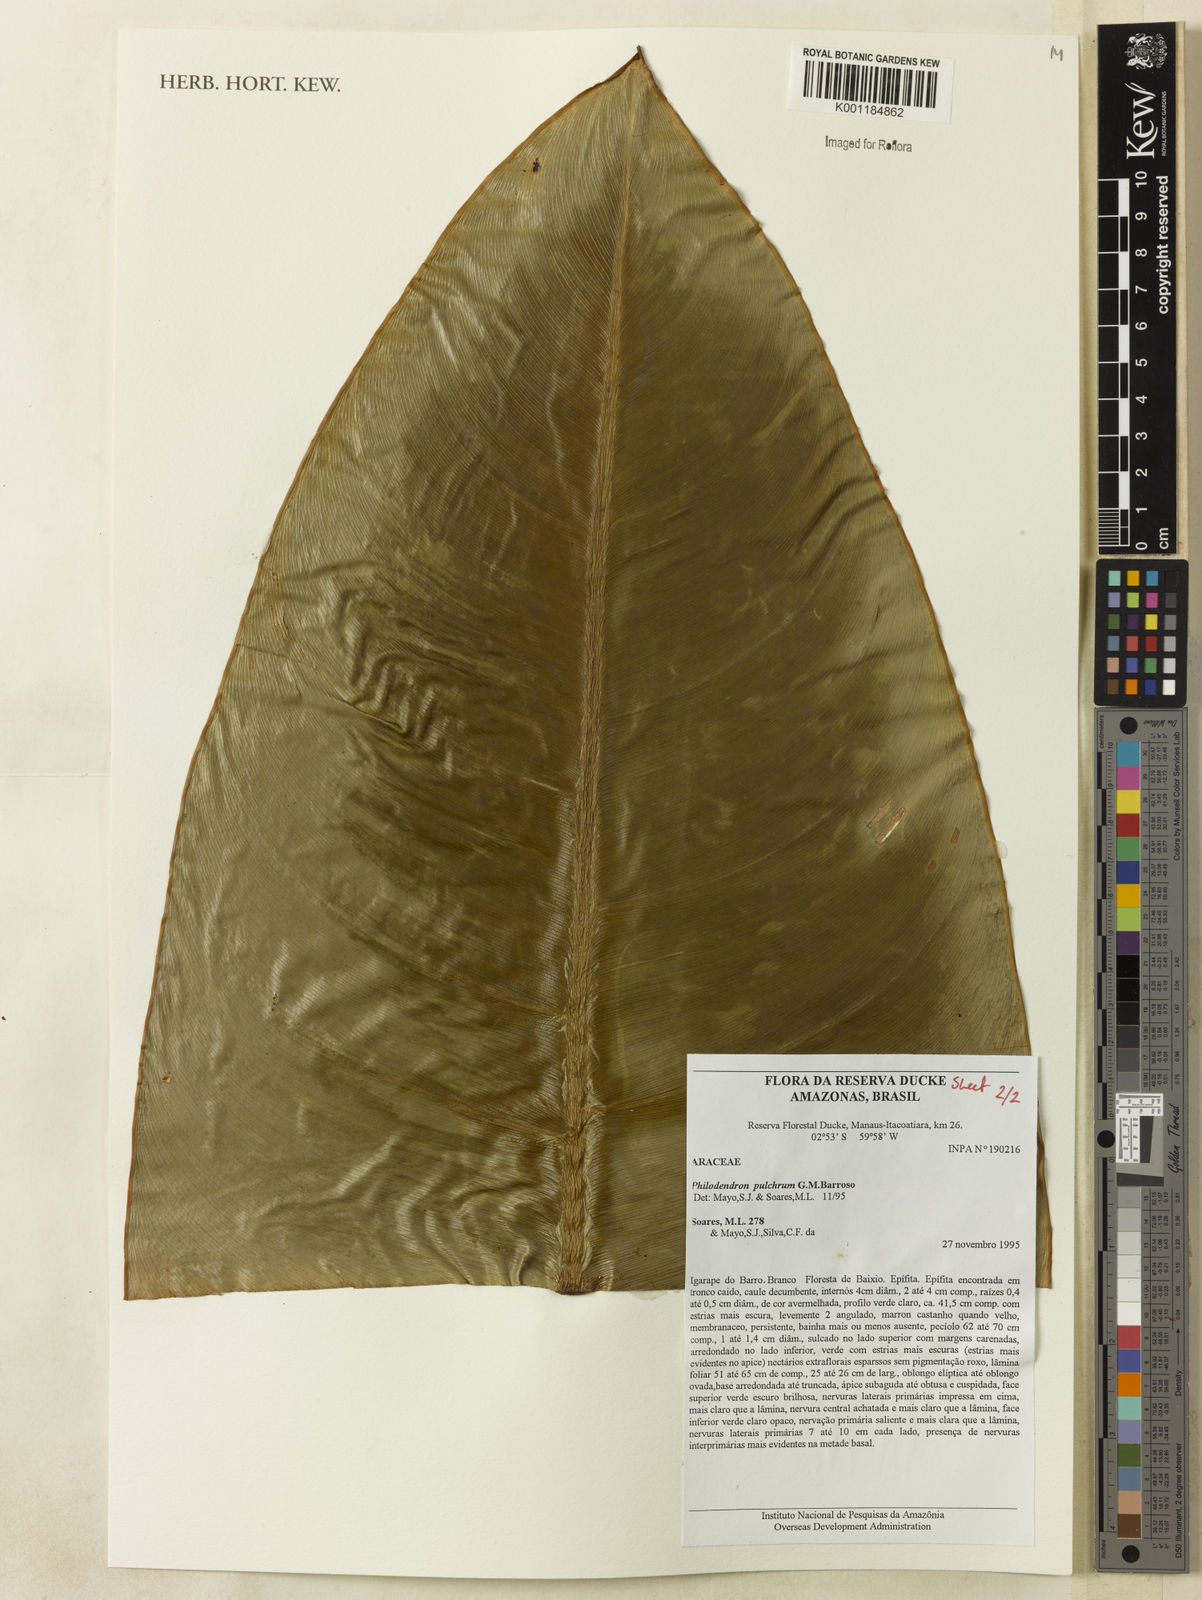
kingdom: Plantae
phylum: Tracheophyta
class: Liliopsida
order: Alismatales
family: Araceae
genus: Philodendron
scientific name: Philodendron pulchrum
